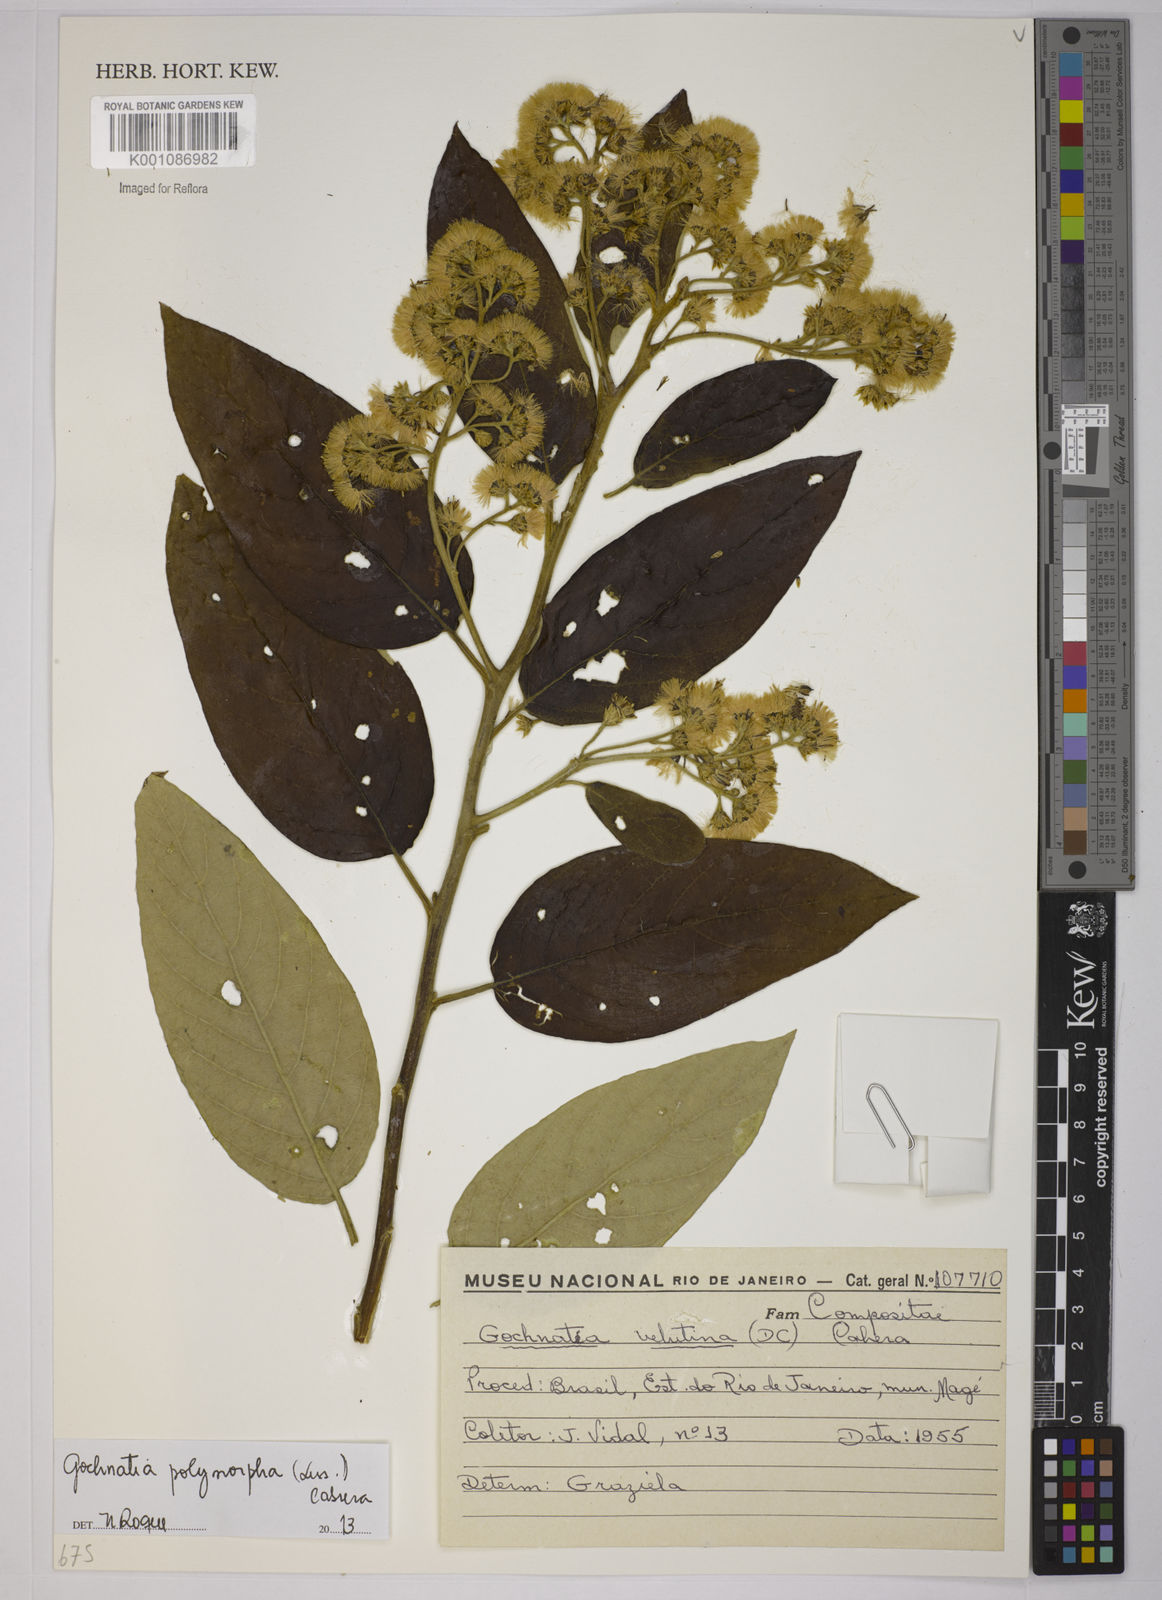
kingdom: Plantae
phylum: Tracheophyta
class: Magnoliopsida
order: Asterales
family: Asteraceae
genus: Moquiniastrum
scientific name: Moquiniastrum polymorphum
